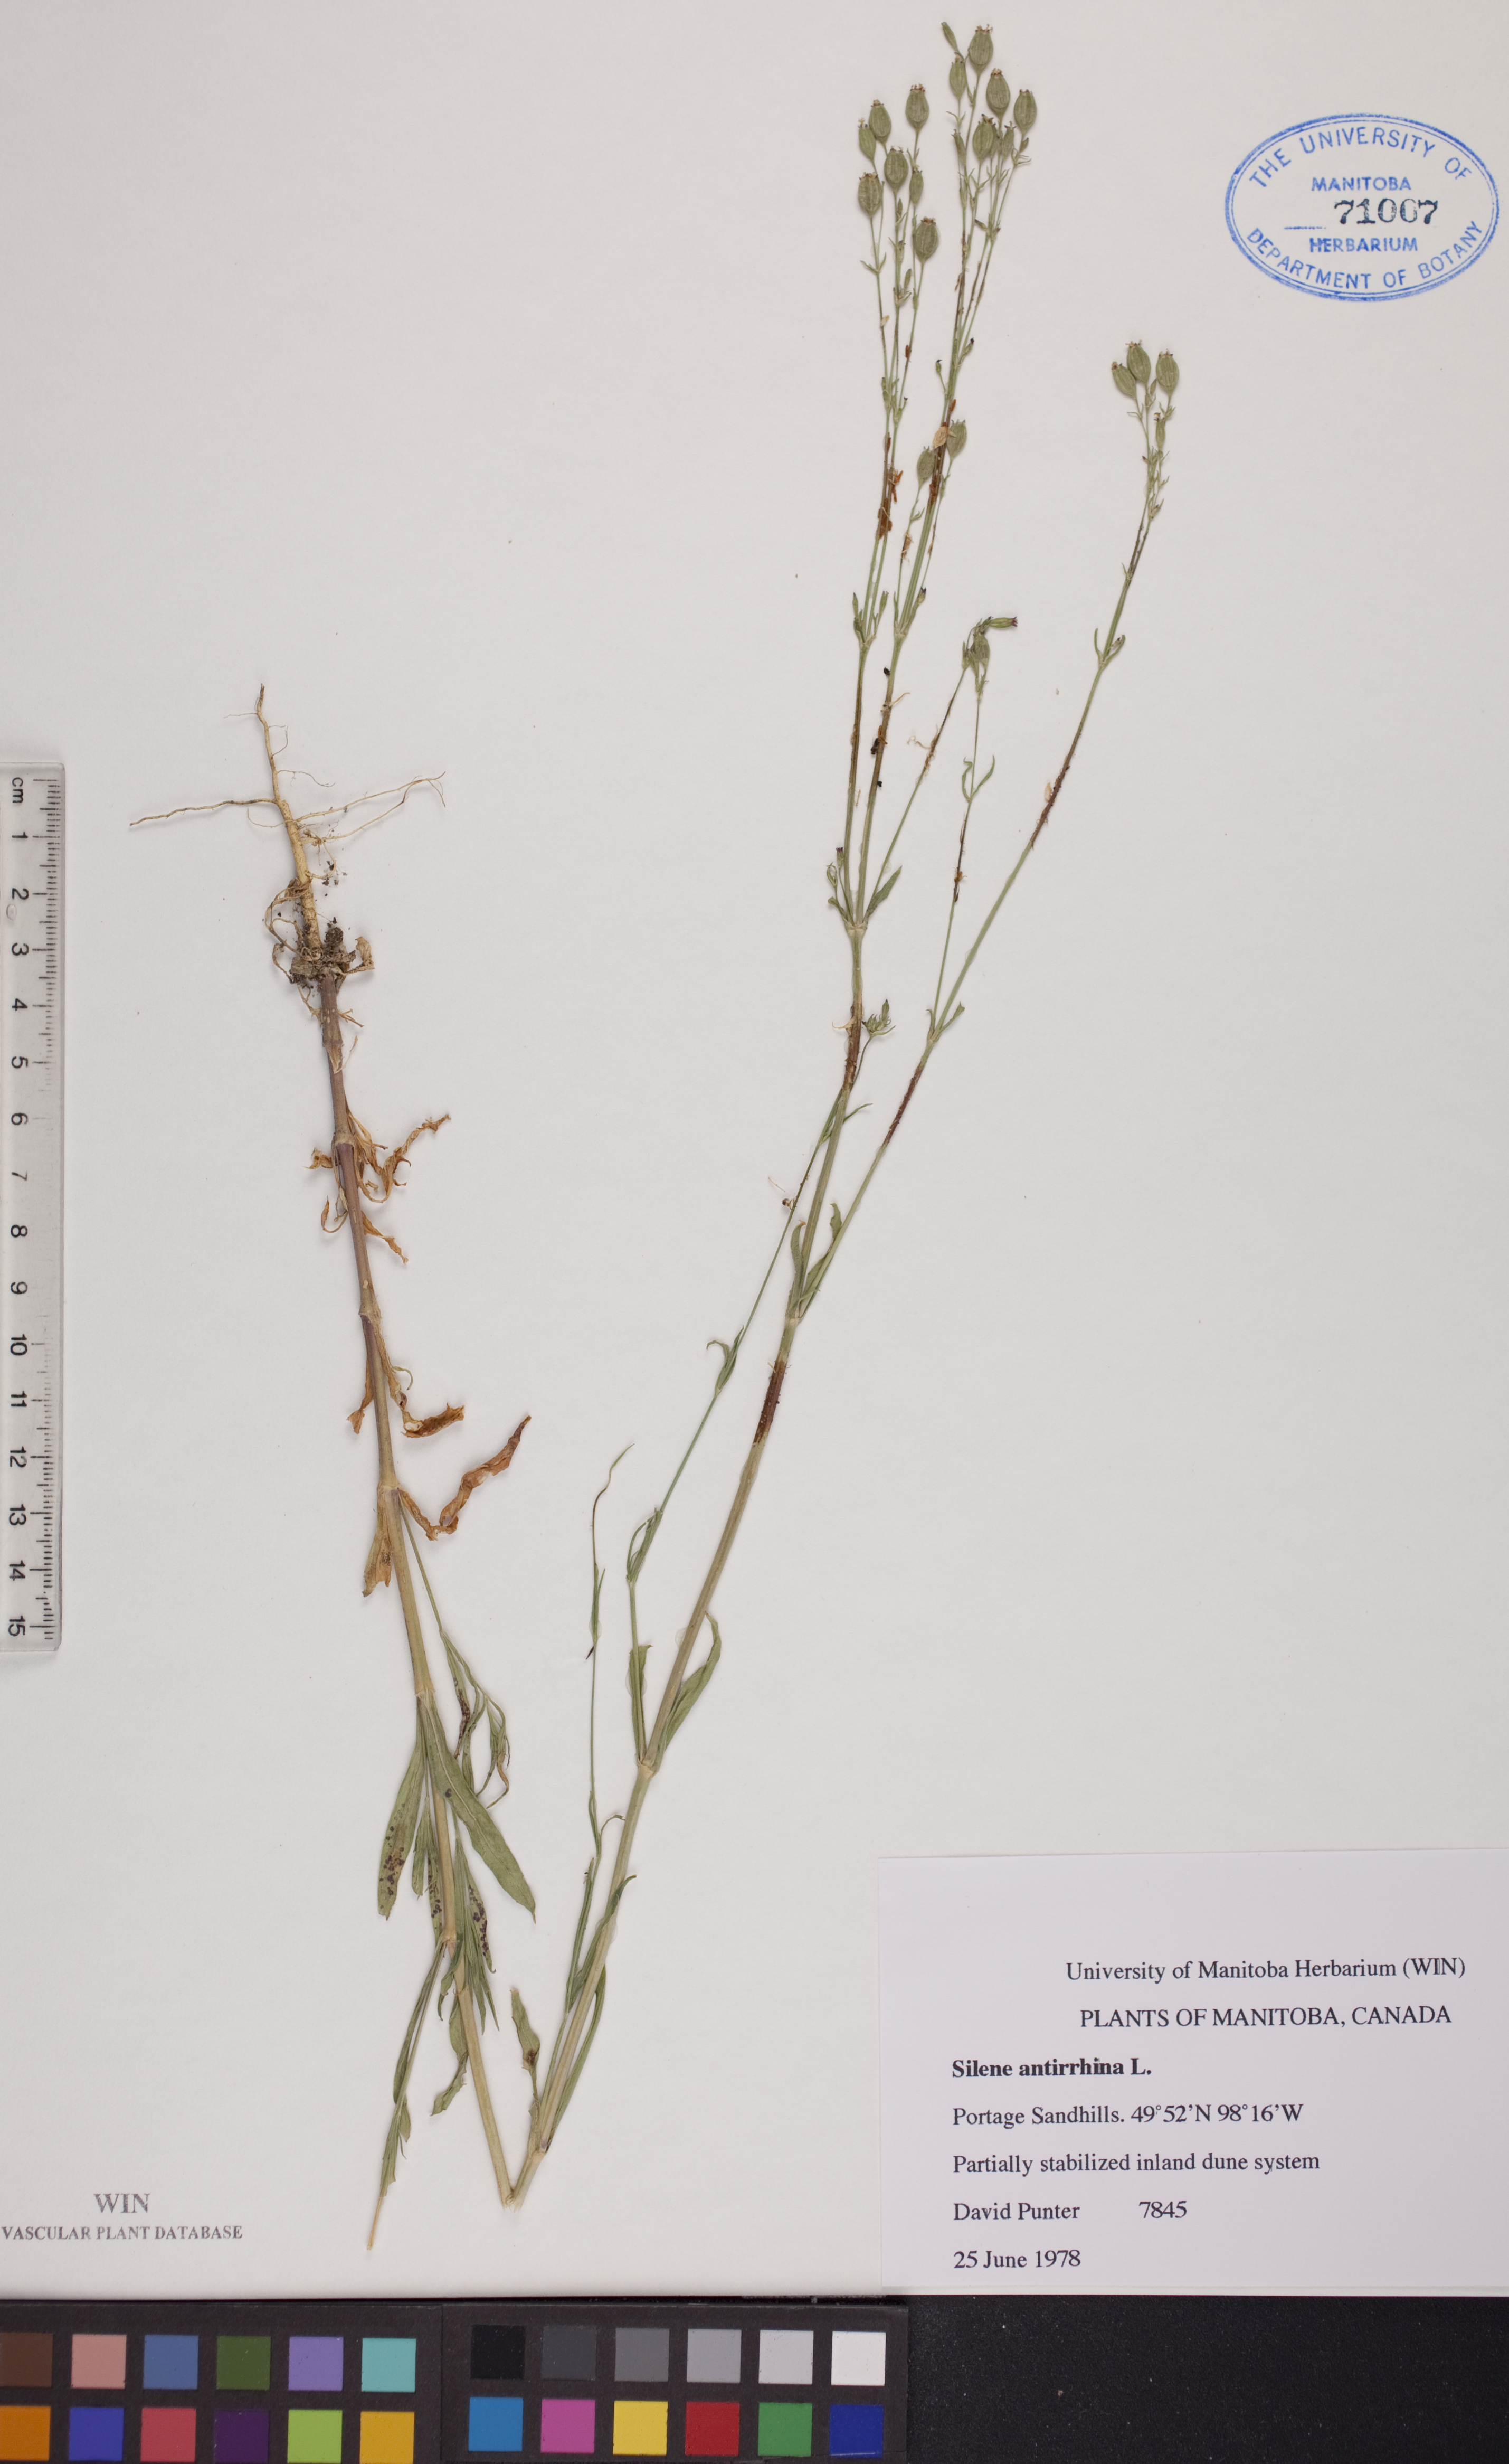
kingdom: Plantae
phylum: Tracheophyta
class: Magnoliopsida
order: Caryophyllales
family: Caryophyllaceae
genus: Silene
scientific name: Silene antirrhina
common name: Sleepy catchfly
